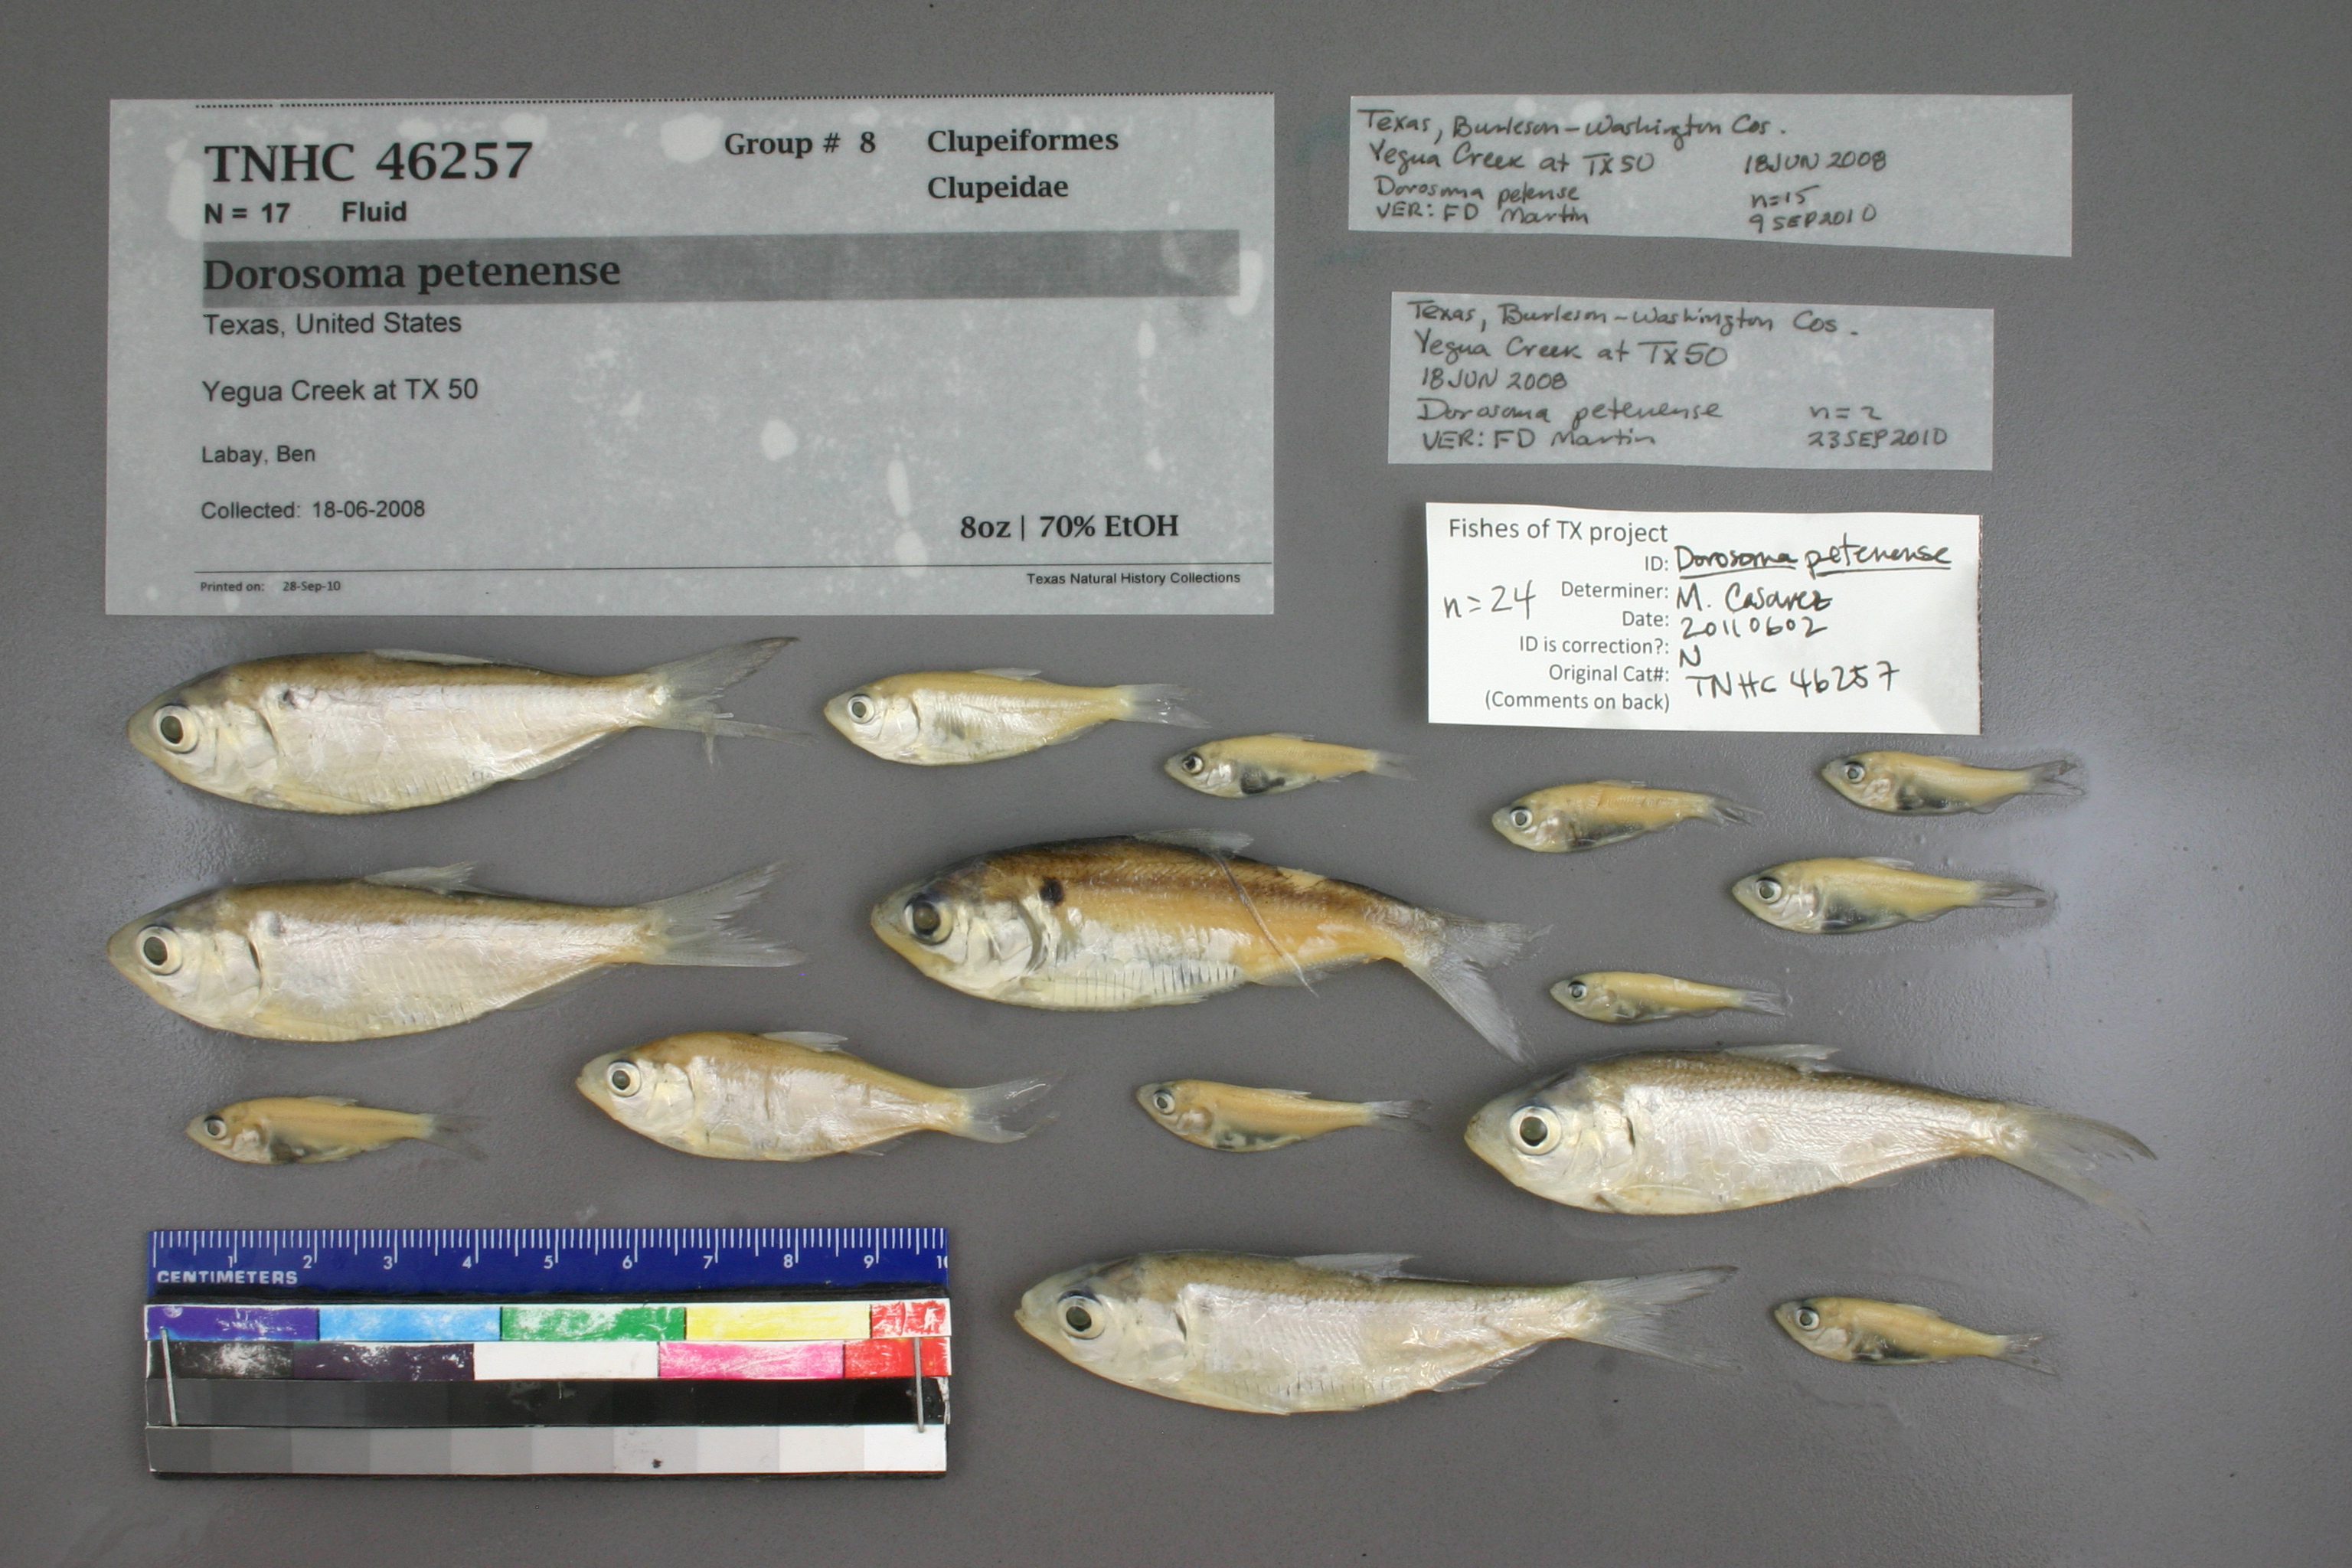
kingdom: Animalia
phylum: Chordata
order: Clupeiformes
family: Clupeidae
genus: Dorosoma
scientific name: Dorosoma petenense
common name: Threadfin shad
